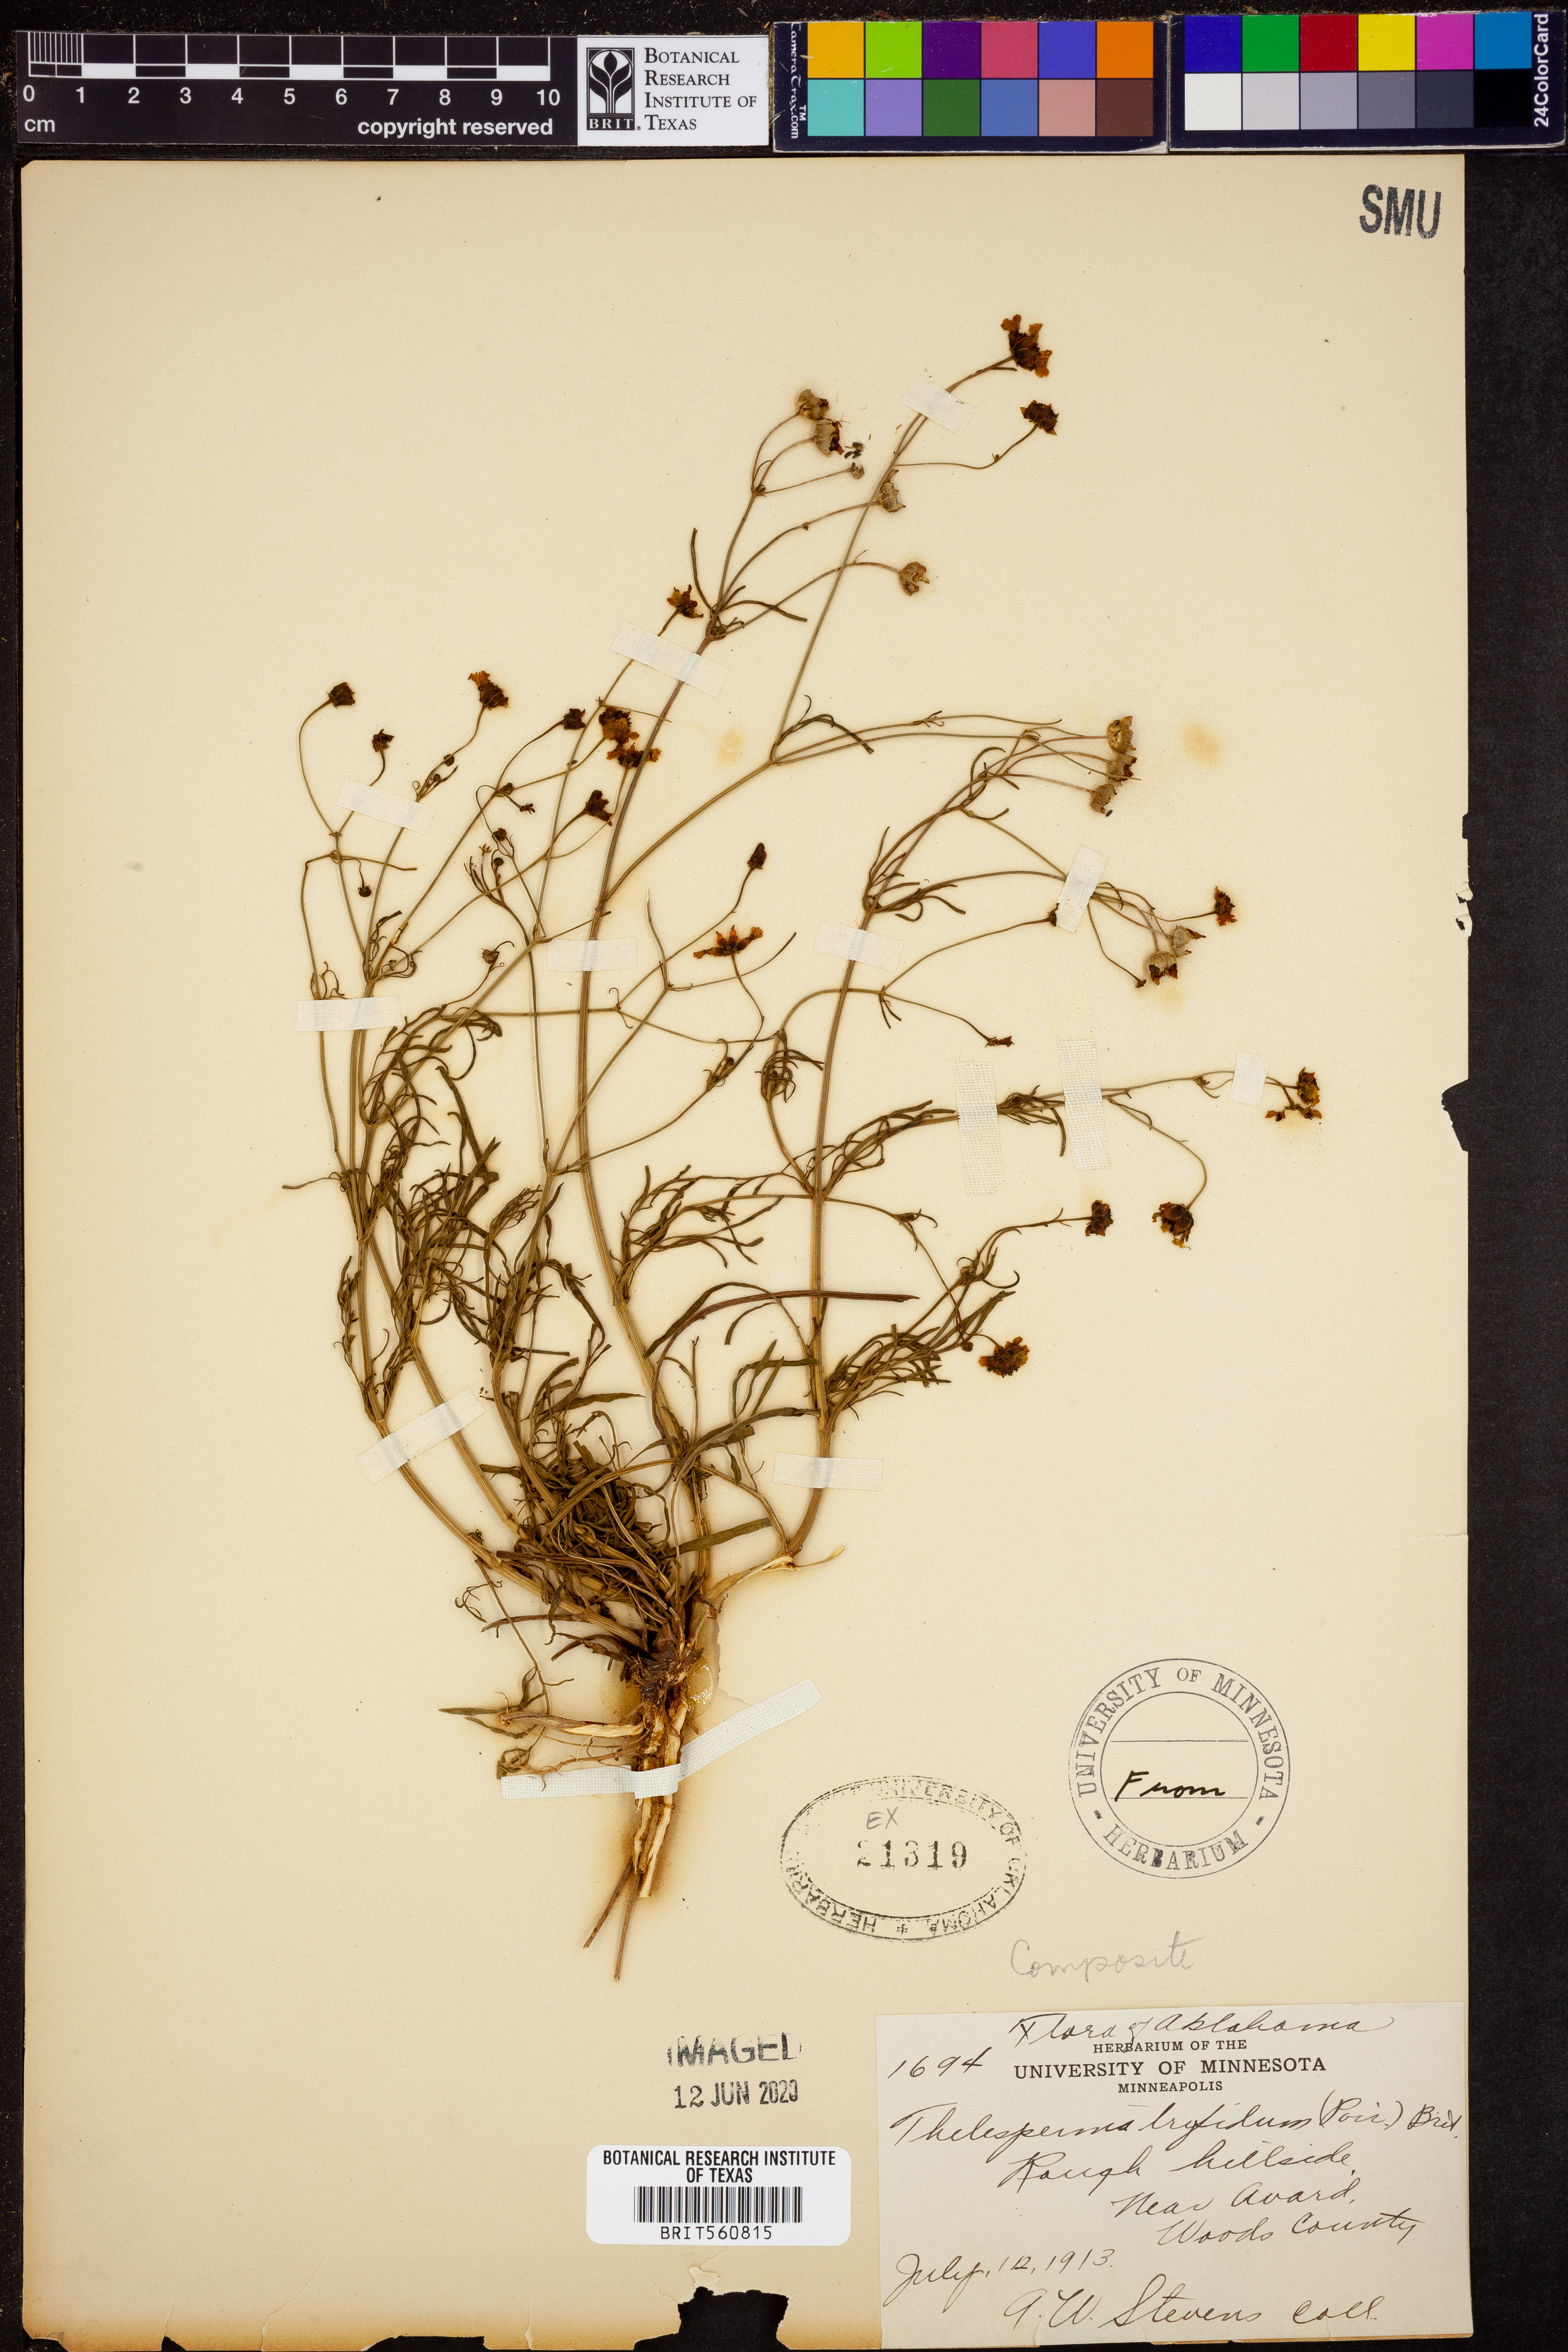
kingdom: Plantae
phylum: Tracheophyta
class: Magnoliopsida
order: Asterales
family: Asteraceae
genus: Thelesperma
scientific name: Thelesperma filifolium
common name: Stiff greenthread
